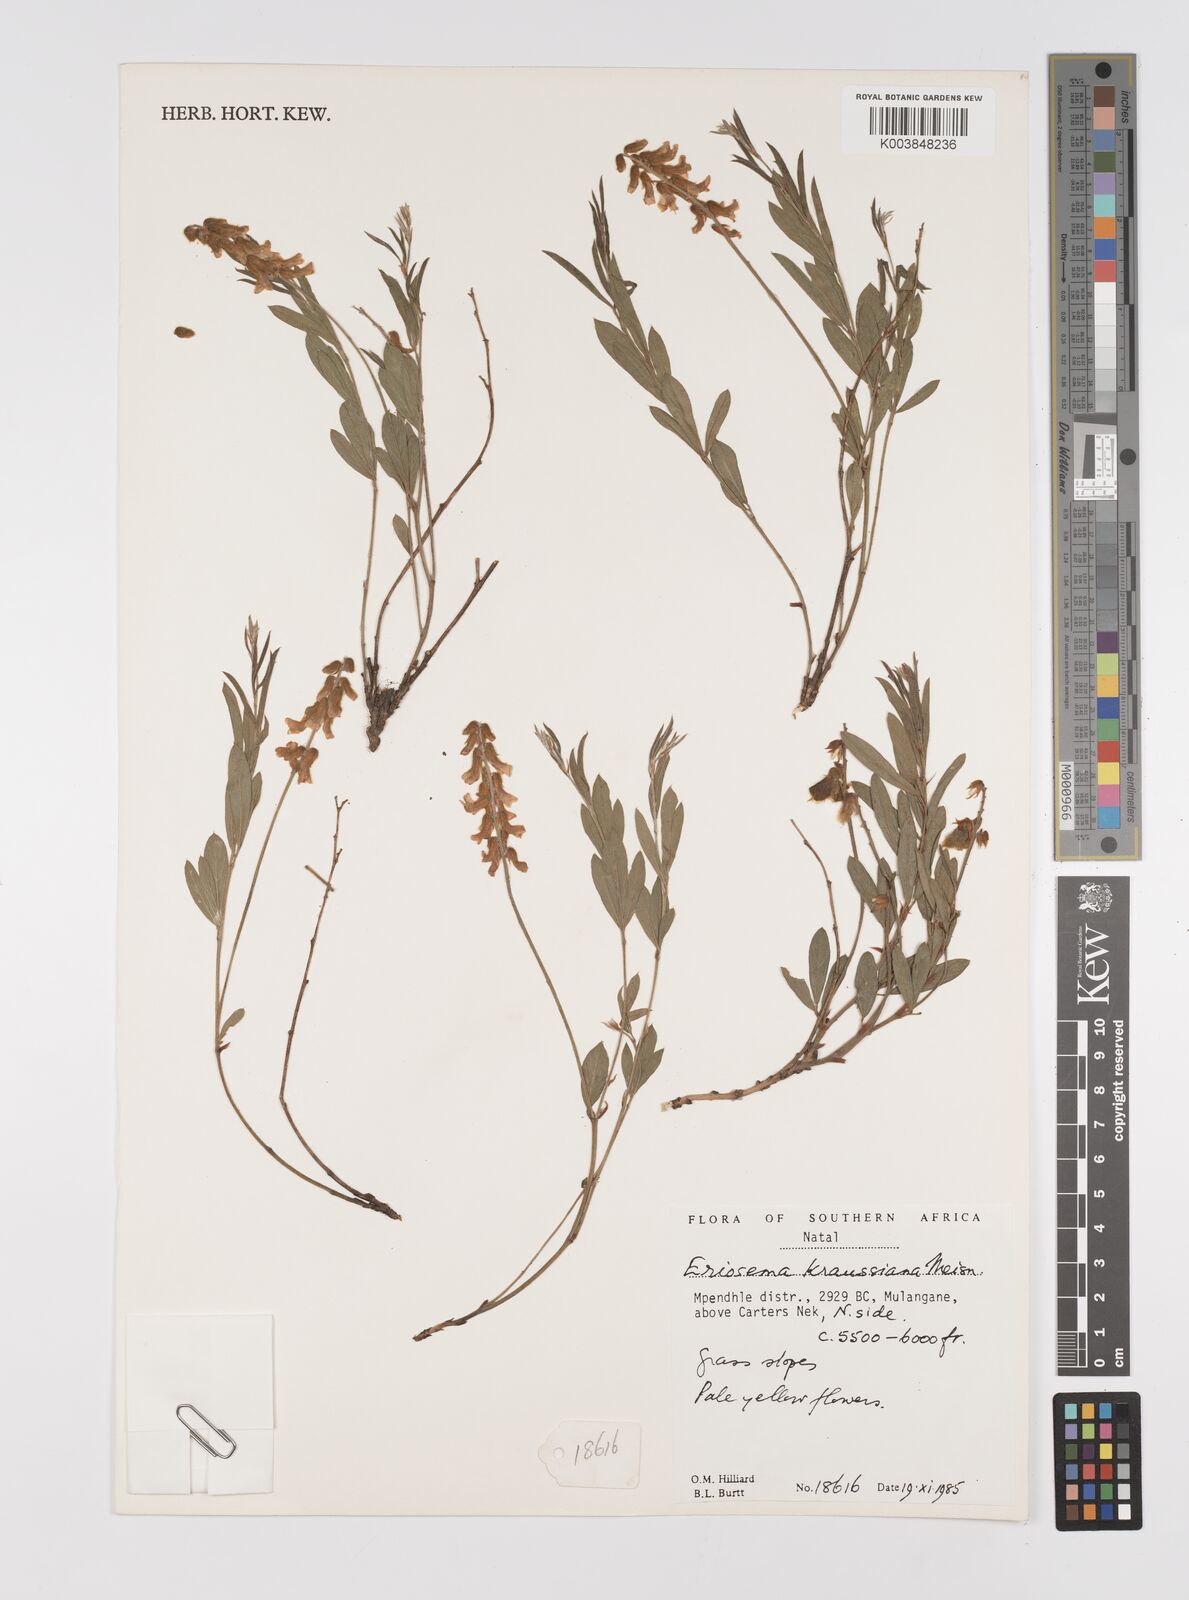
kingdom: Plantae
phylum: Tracheophyta
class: Magnoliopsida
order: Fabales
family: Fabaceae
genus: Eriosema
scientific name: Eriosema kraussianum
